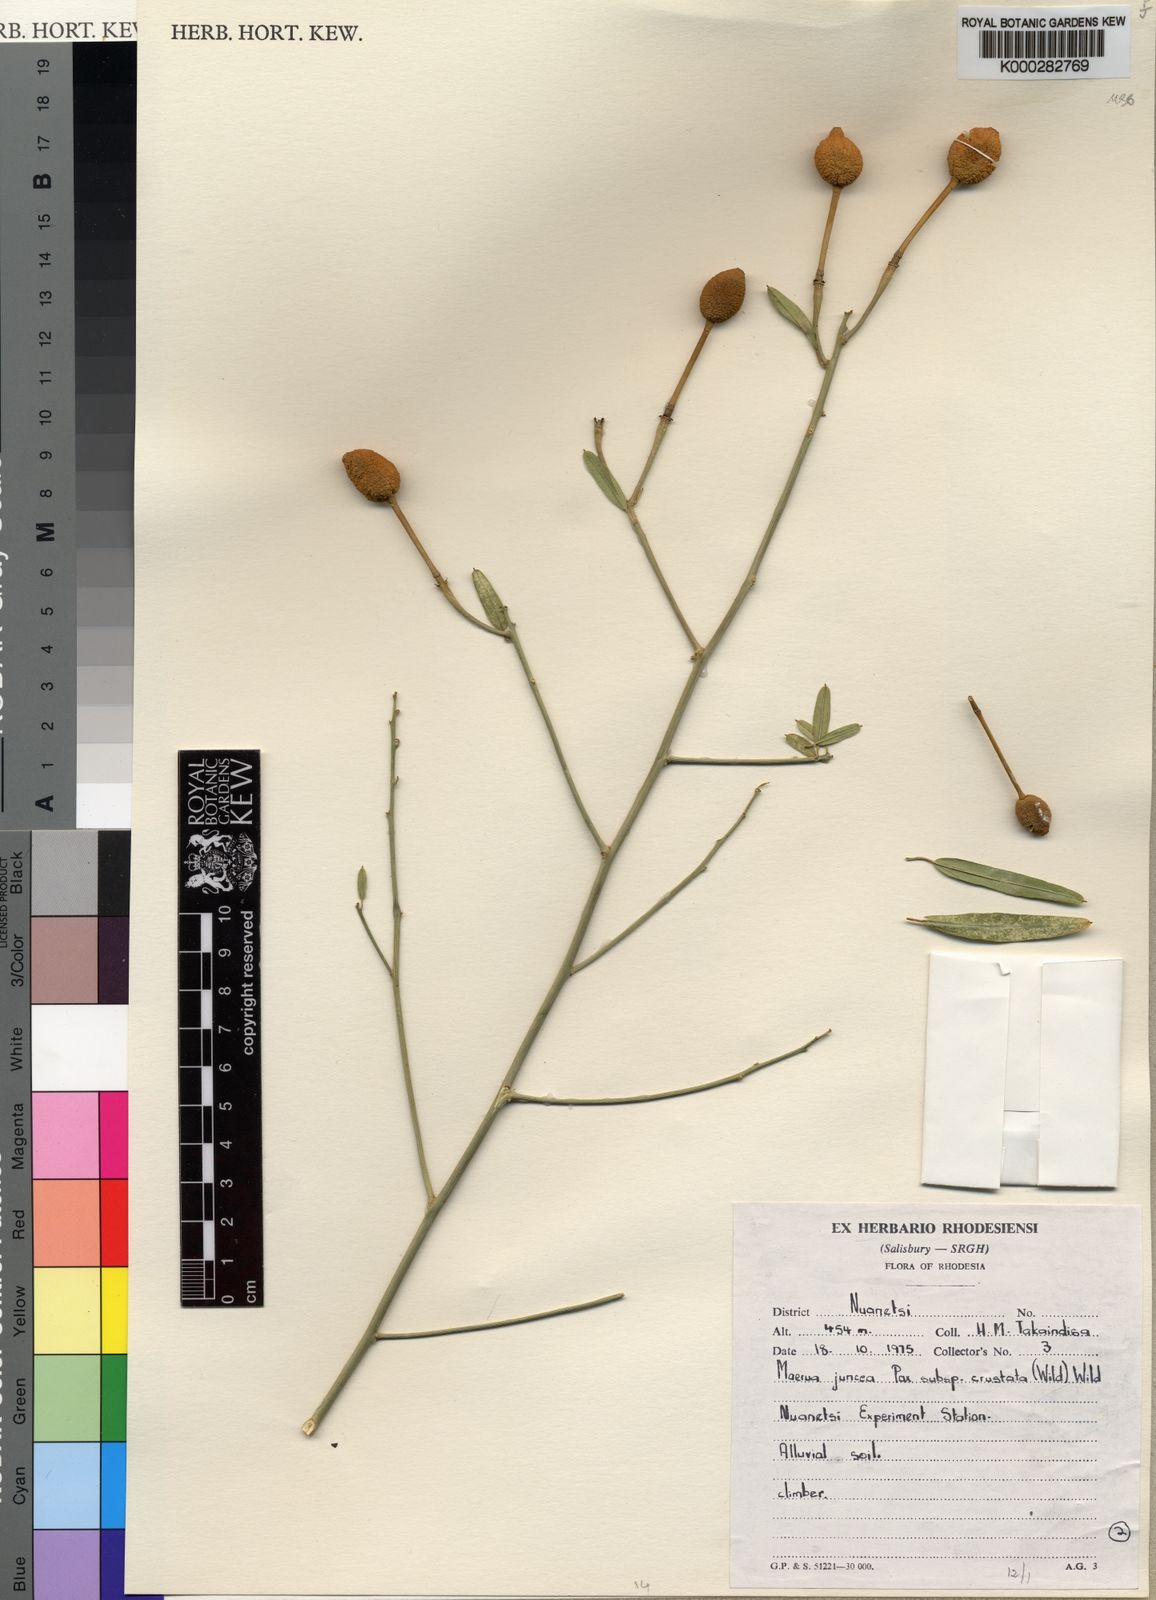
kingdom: Plantae
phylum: Tracheophyta
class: Magnoliopsida
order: Brassicales
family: Capparaceae
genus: Maerua
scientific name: Maerua juncea
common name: Rough-skinned bush cherry
